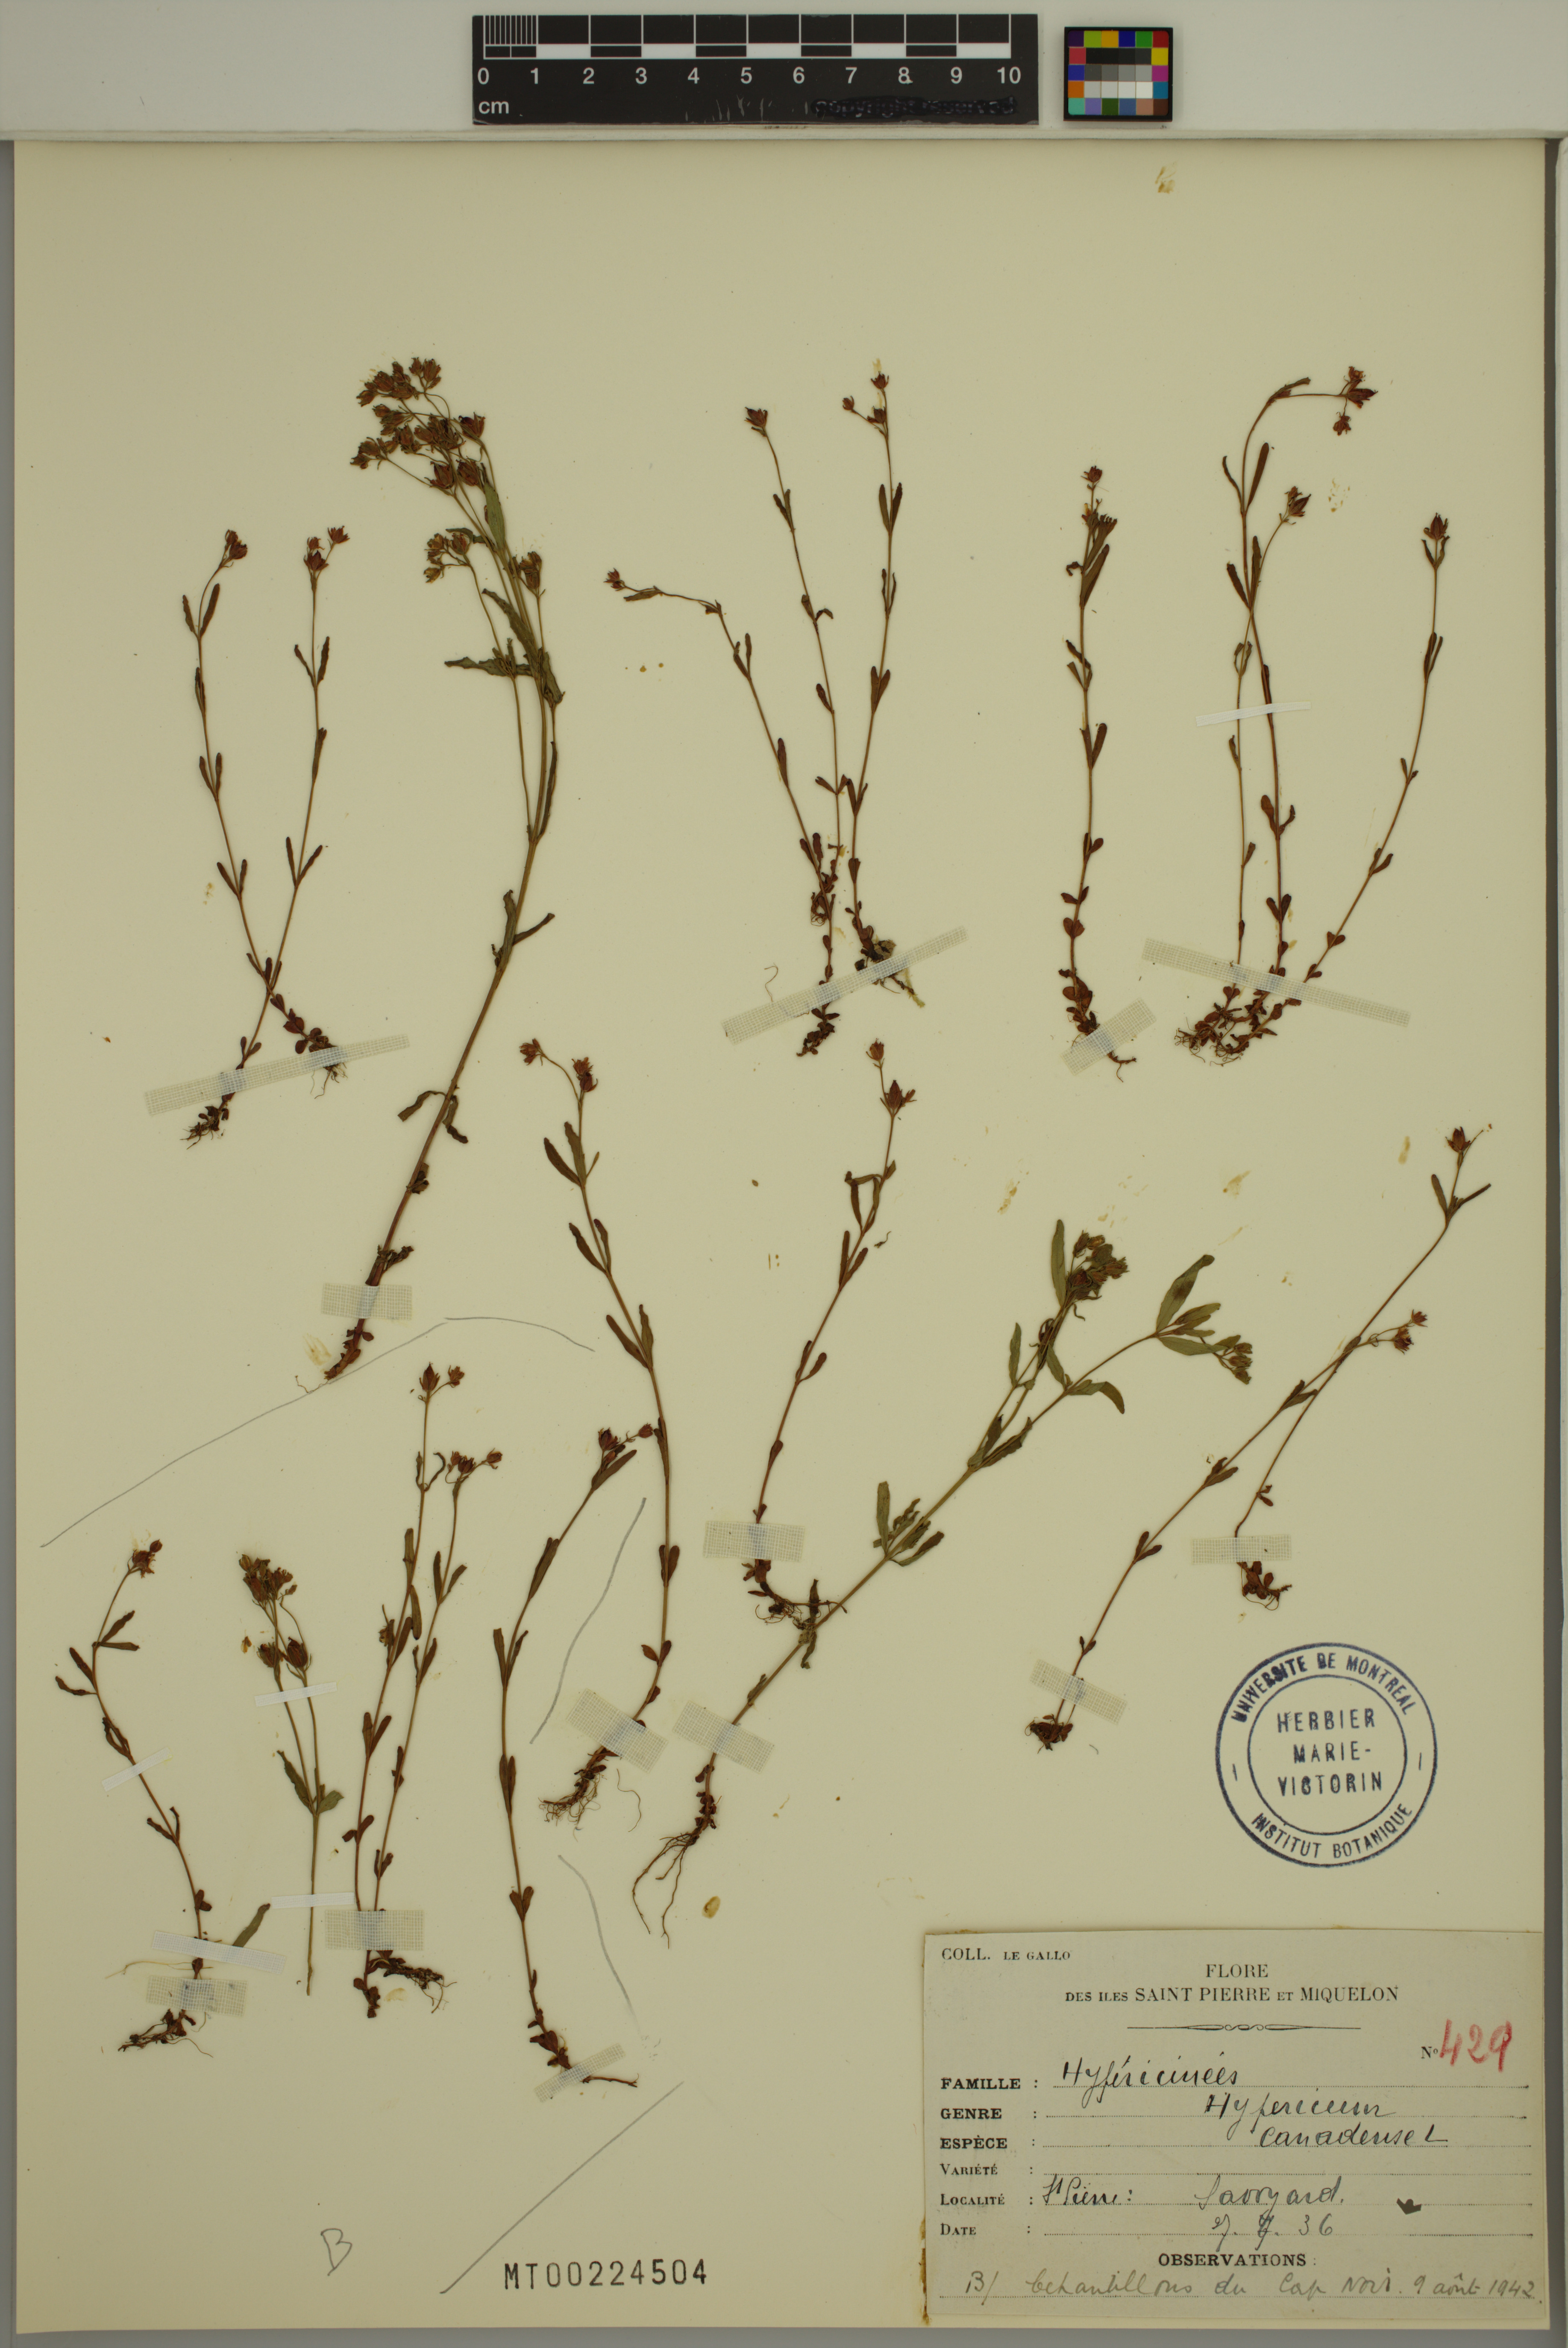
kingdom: Plantae
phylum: Tracheophyta
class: Magnoliopsida
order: Malpighiales
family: Hypericaceae
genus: Hypericum
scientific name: Hypericum canadense
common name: Irish st. john's-wort
